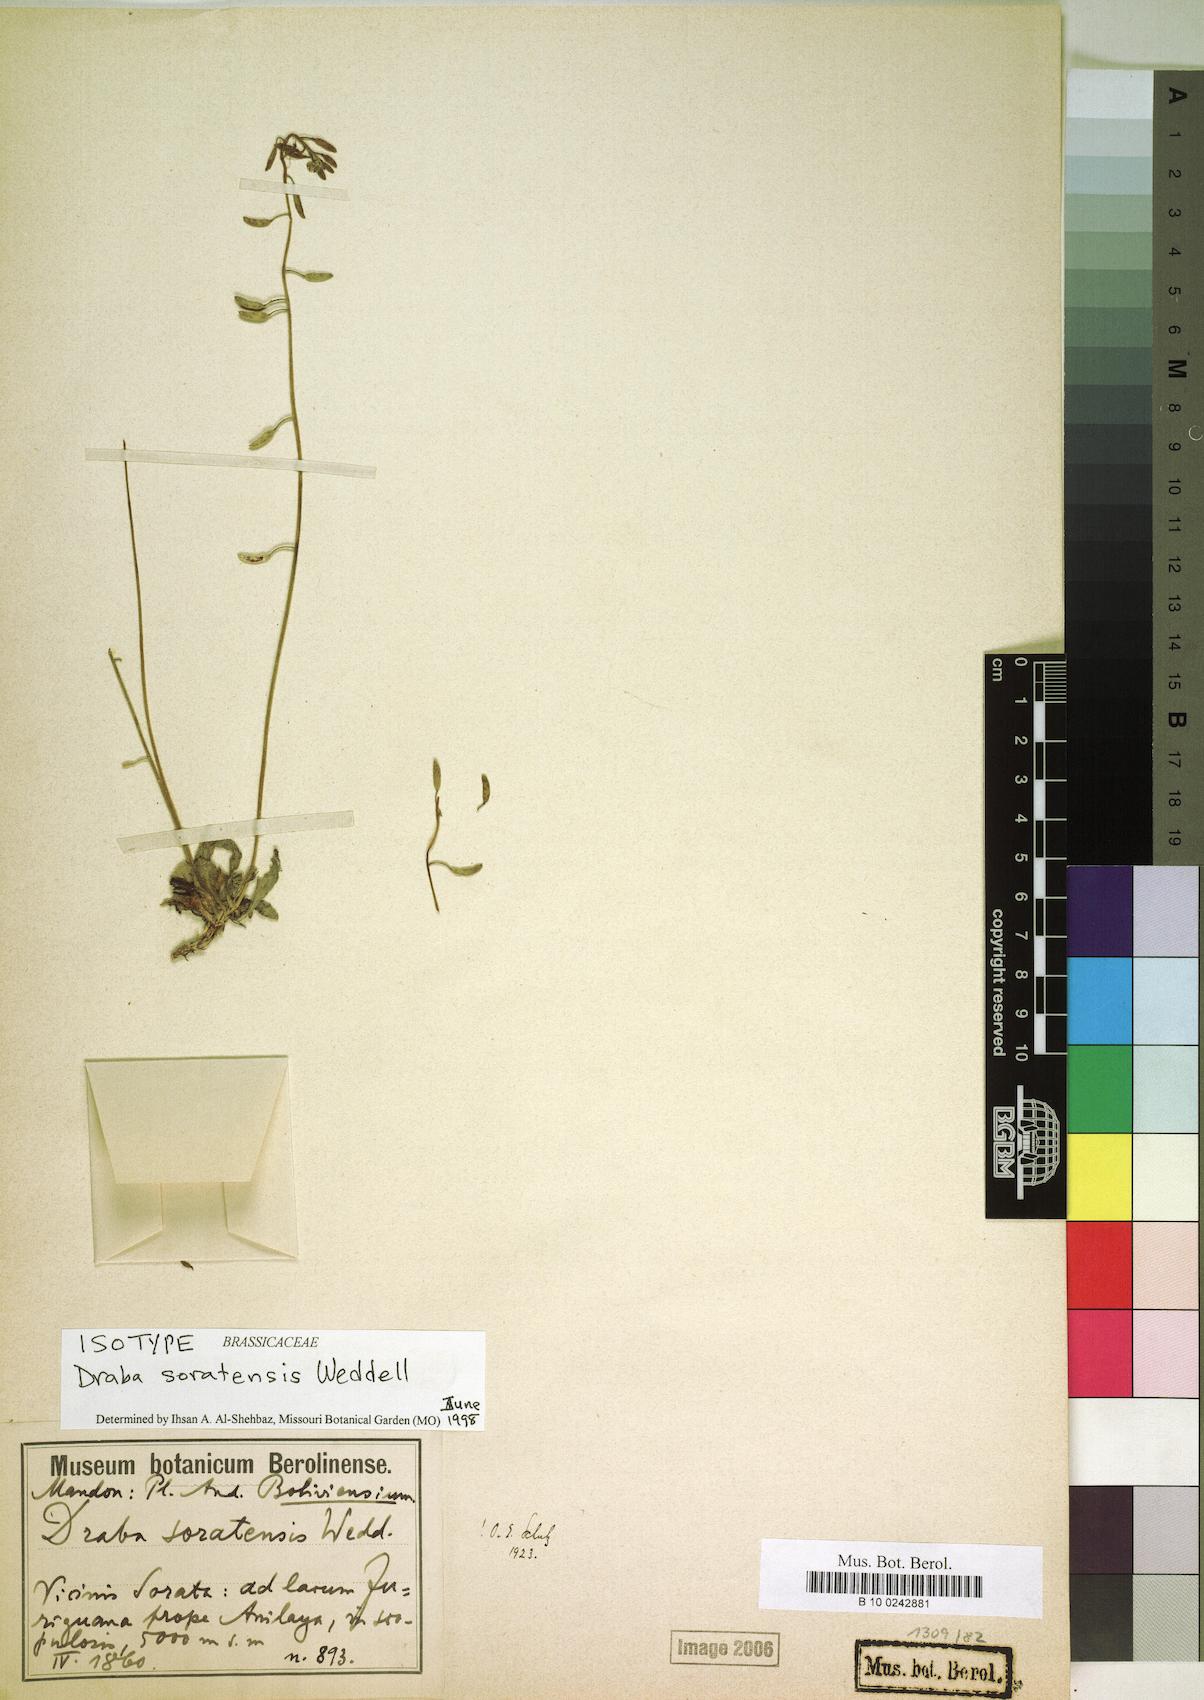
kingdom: Plantae
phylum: Tracheophyta
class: Magnoliopsida
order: Brassicales
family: Brassicaceae
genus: Draba
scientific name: Draba soratensis
